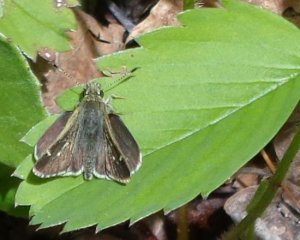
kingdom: Animalia
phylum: Arthropoda
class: Insecta
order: Lepidoptera
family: Hesperiidae
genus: Mastor
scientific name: Mastor hegon
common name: Pepper and Salt Skipper
